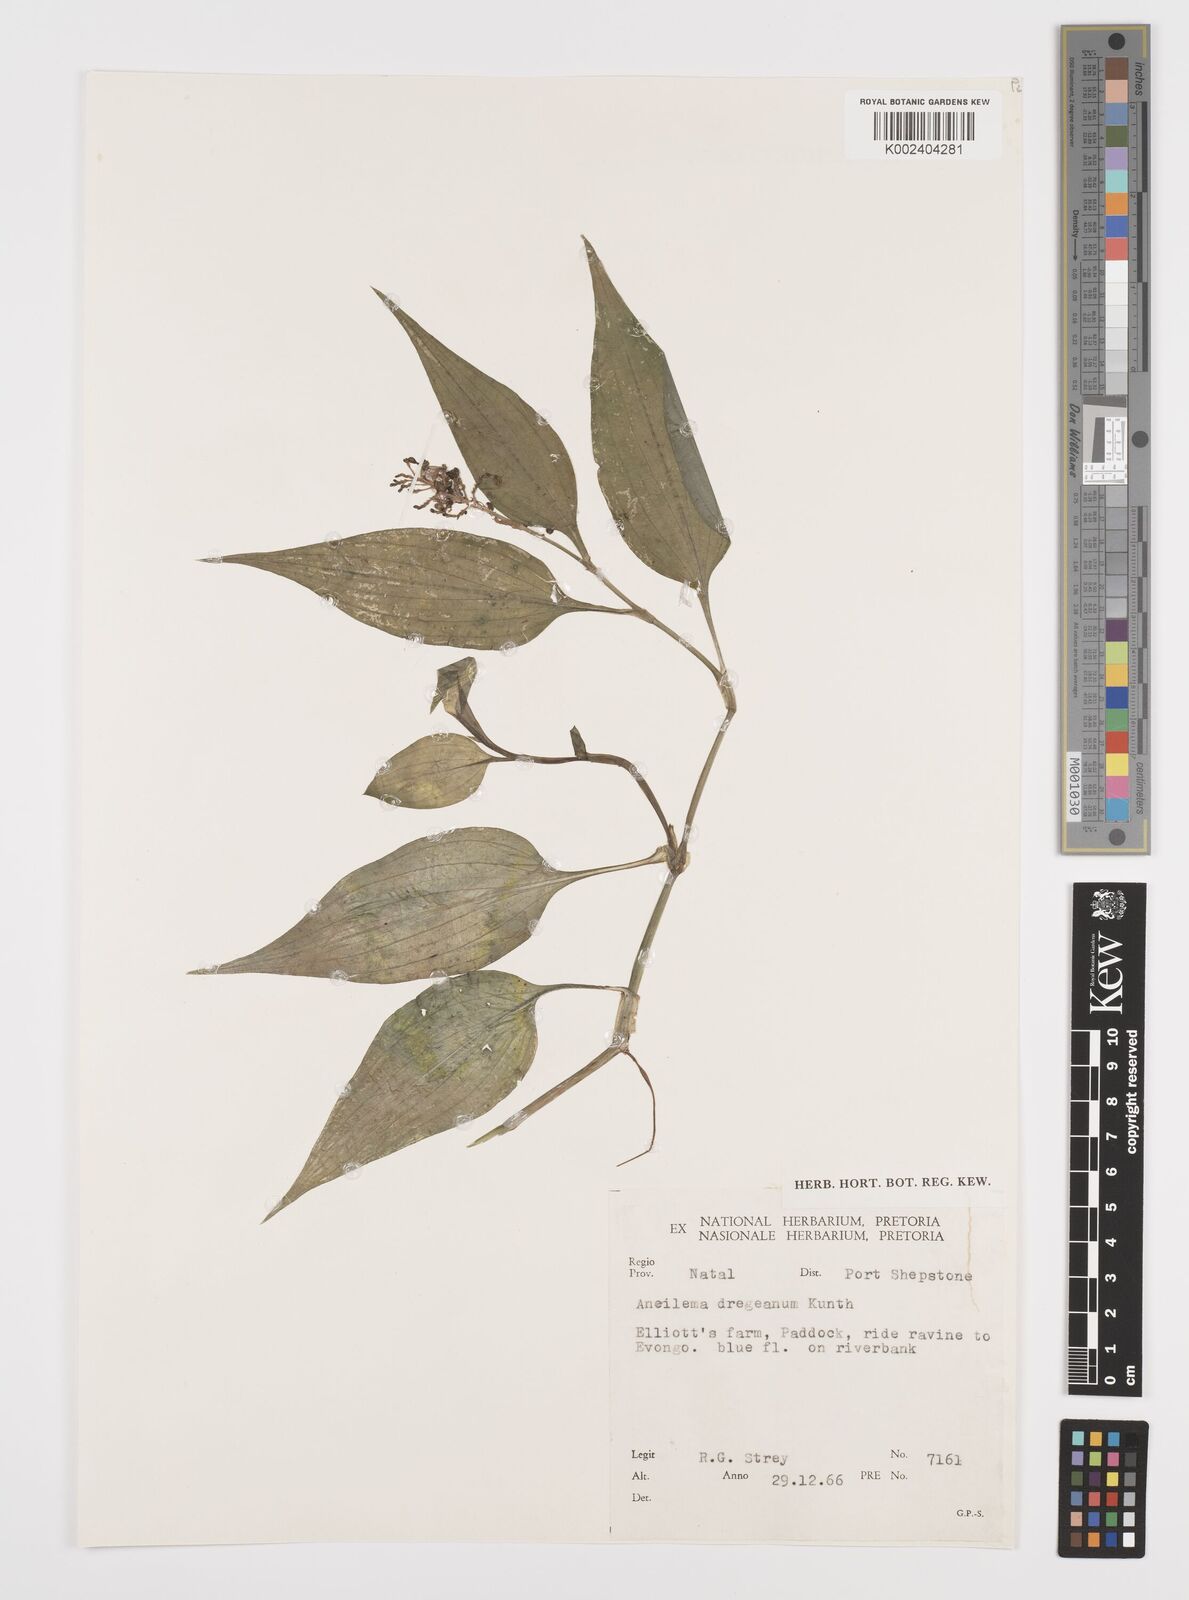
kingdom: Plantae
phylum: Tracheophyta
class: Liliopsida
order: Commelinales
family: Commelinaceae
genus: Aneilema
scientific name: Aneilema dregeanum
